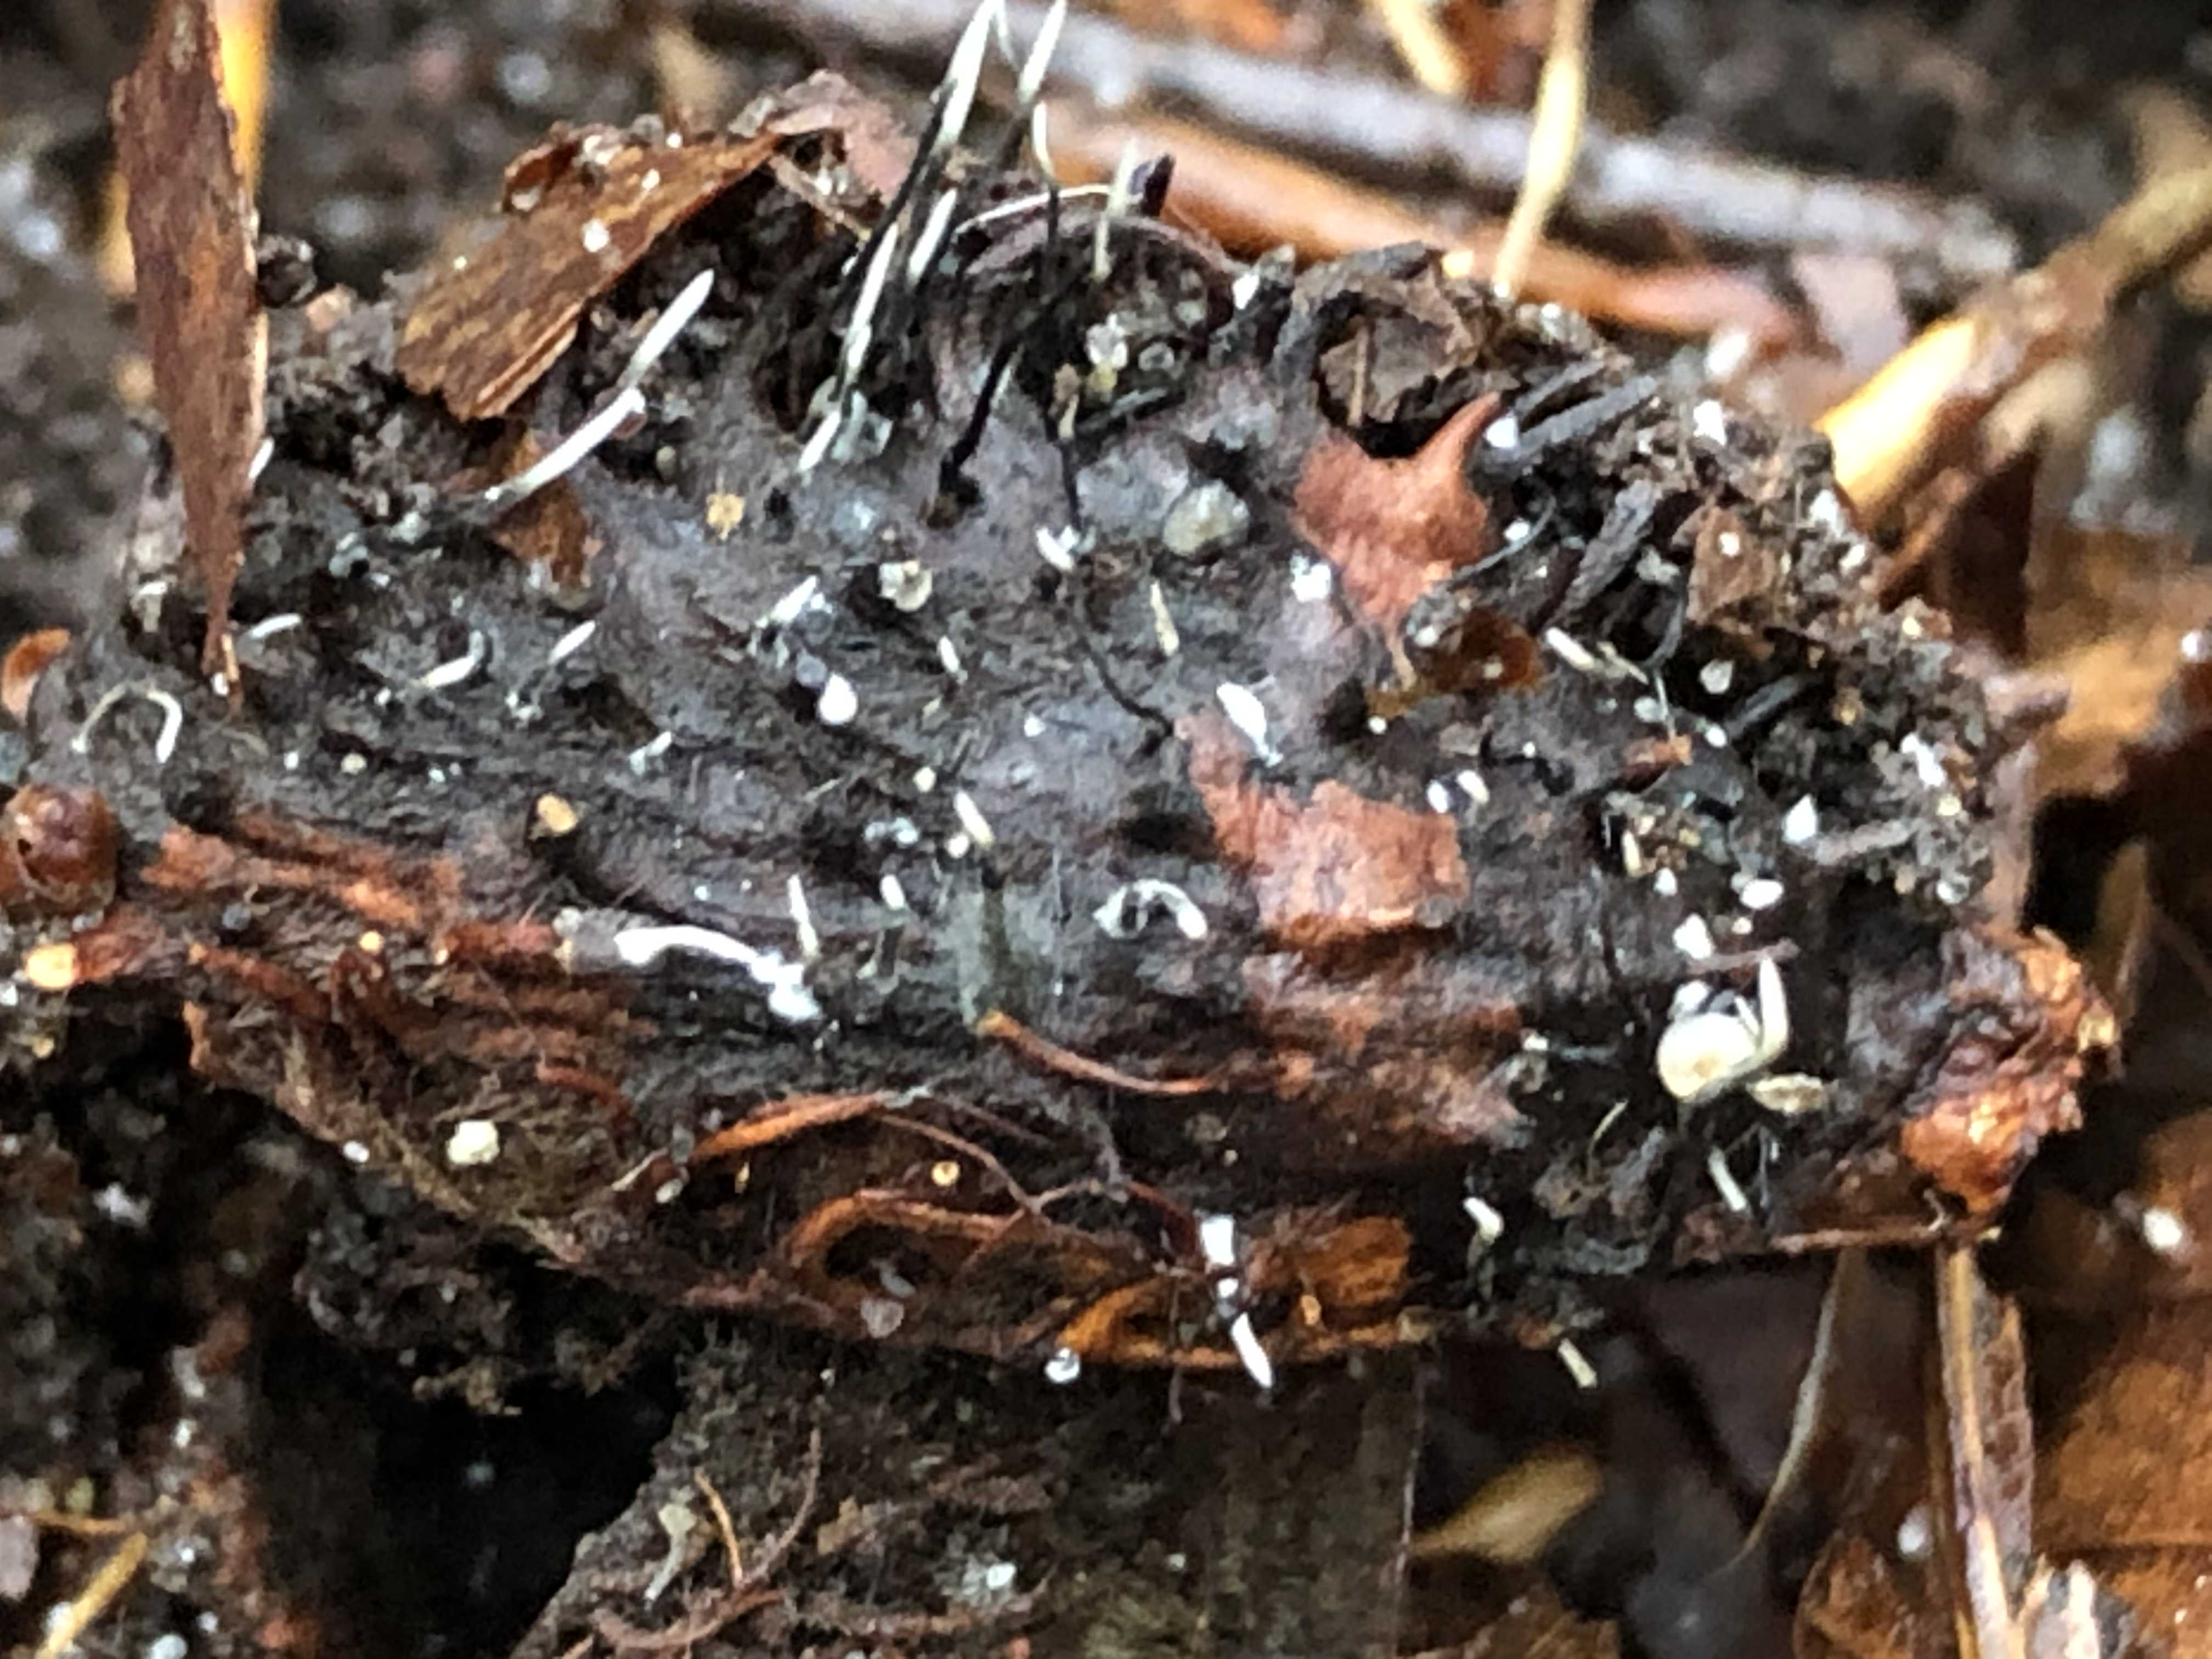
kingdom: Fungi
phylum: Ascomycota
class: Sordariomycetes
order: Xylariales
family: Xylariaceae
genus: Xylaria
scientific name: Xylaria carpophila
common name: bogskål-stødsvamp
